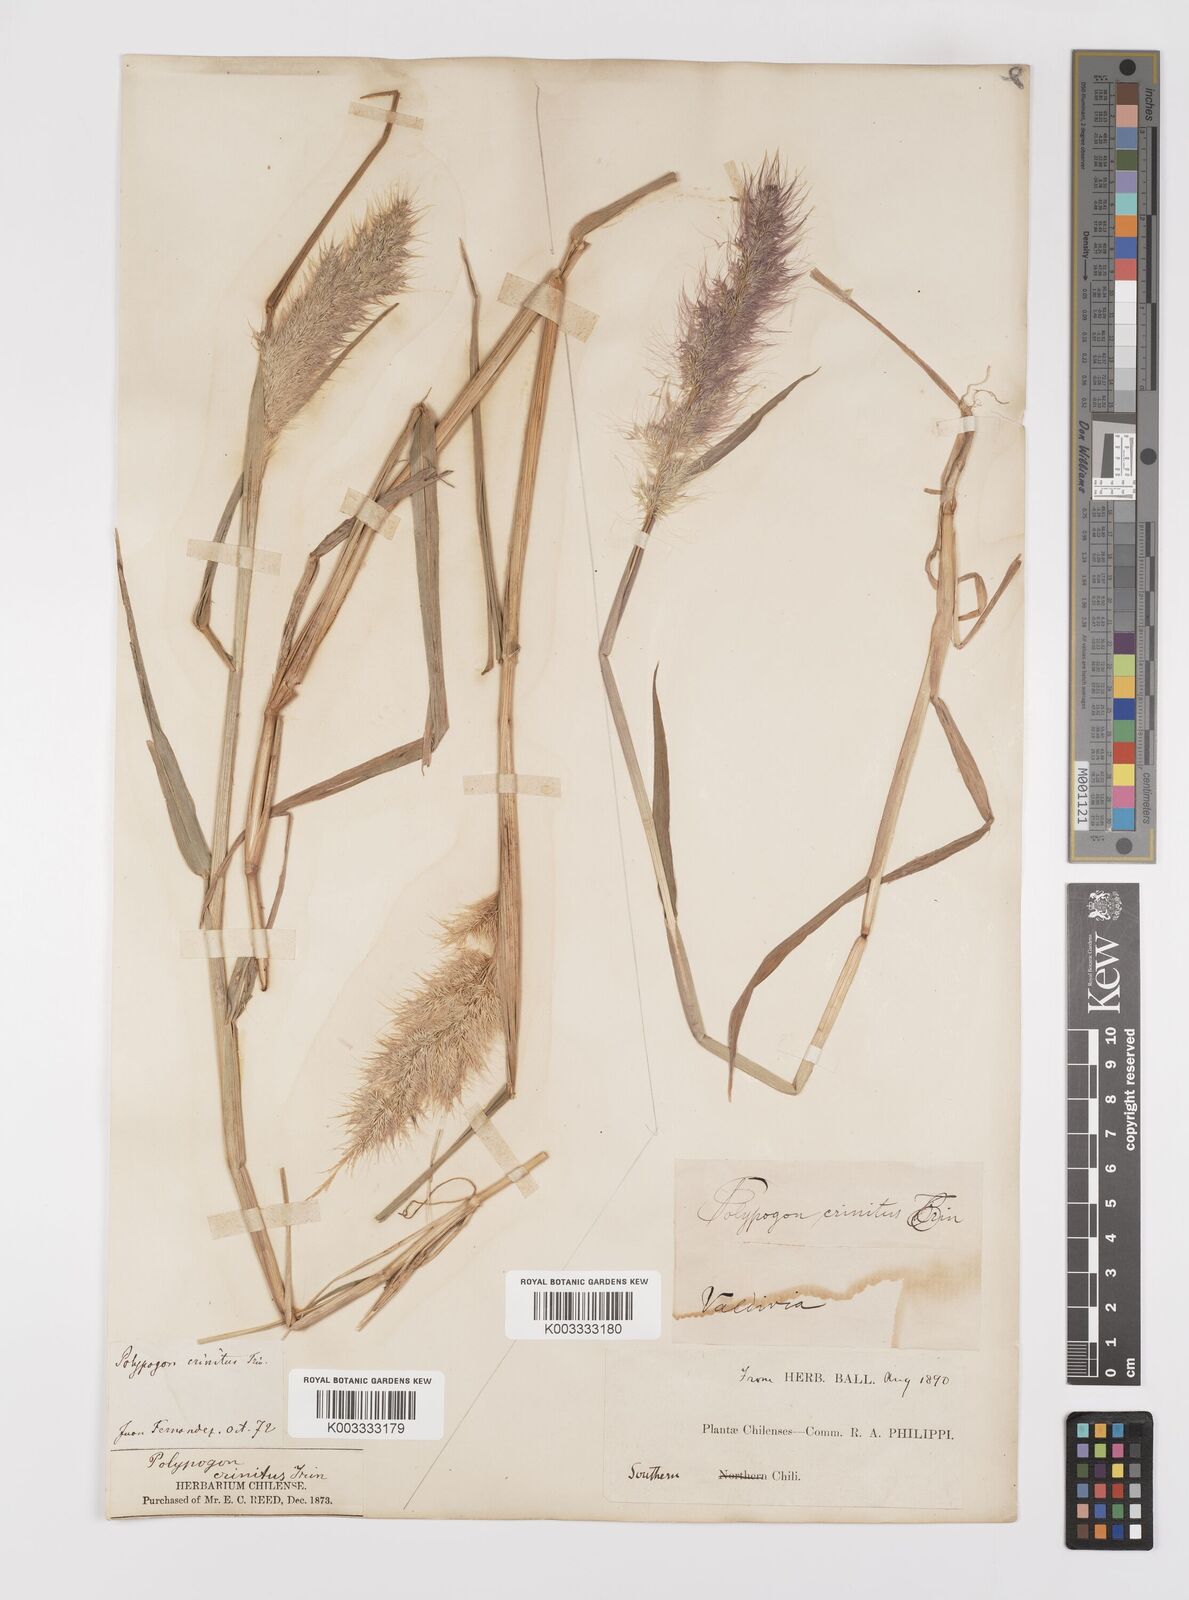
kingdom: Plantae
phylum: Tracheophyta
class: Liliopsida
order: Poales
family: Poaceae
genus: Polypogon
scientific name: Polypogon australis
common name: Chilean rabbitsfoot grass
